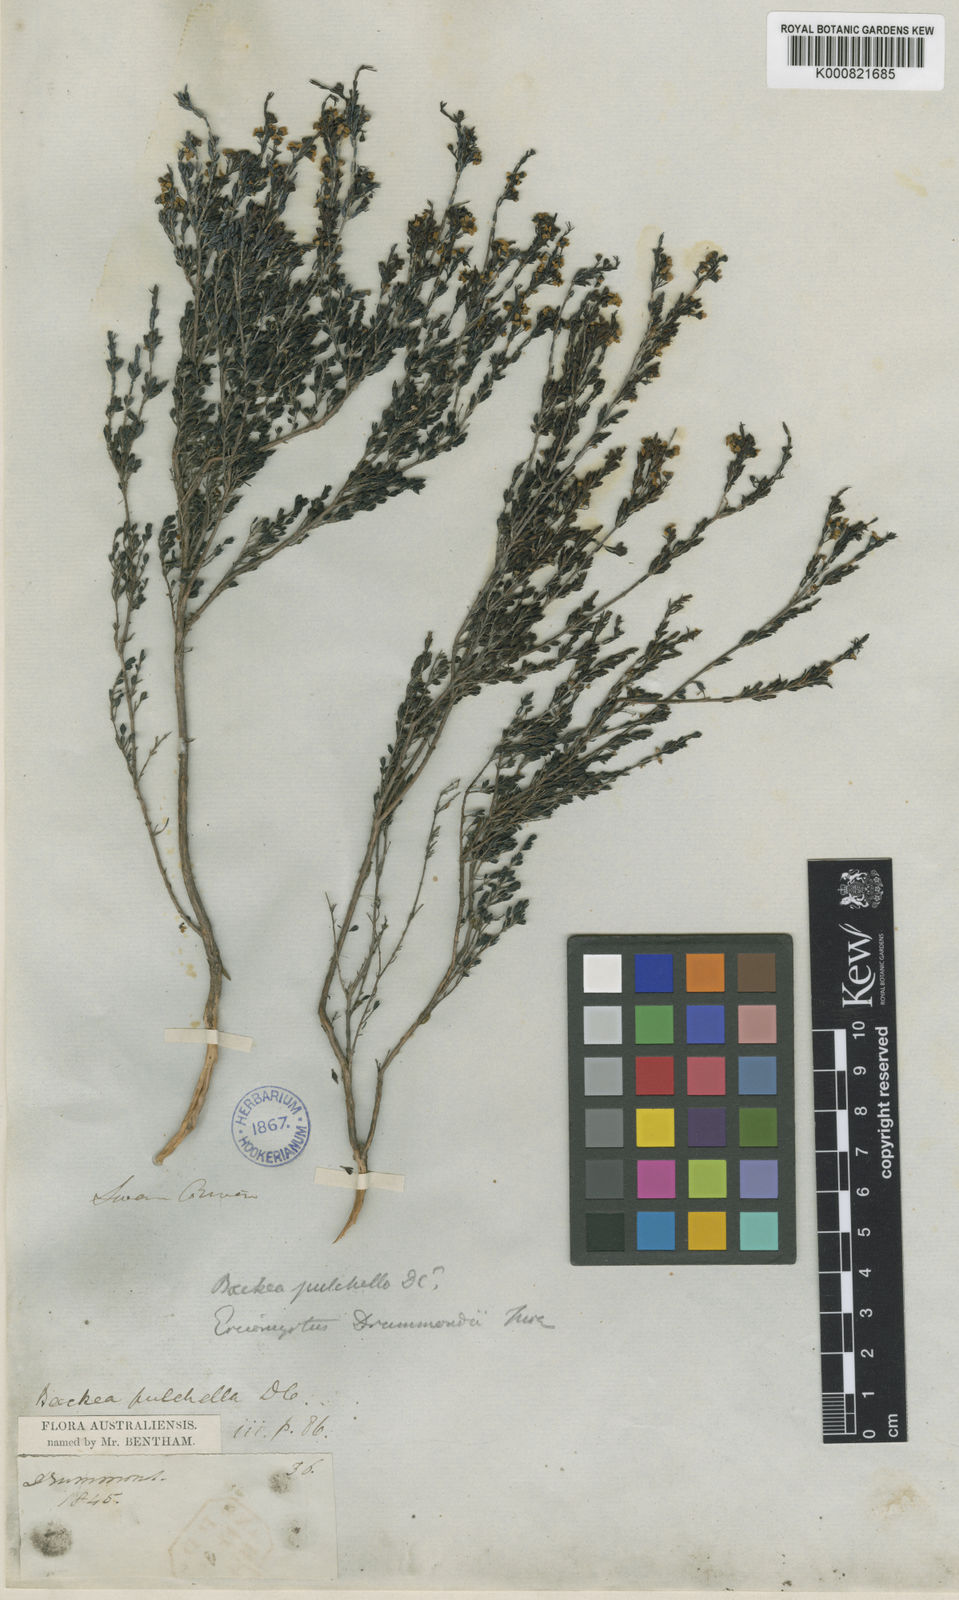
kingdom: Plantae
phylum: Tracheophyta
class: Magnoliopsida
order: Myrtales
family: Myrtaceae
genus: Astartea
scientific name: Astartea pulchella
